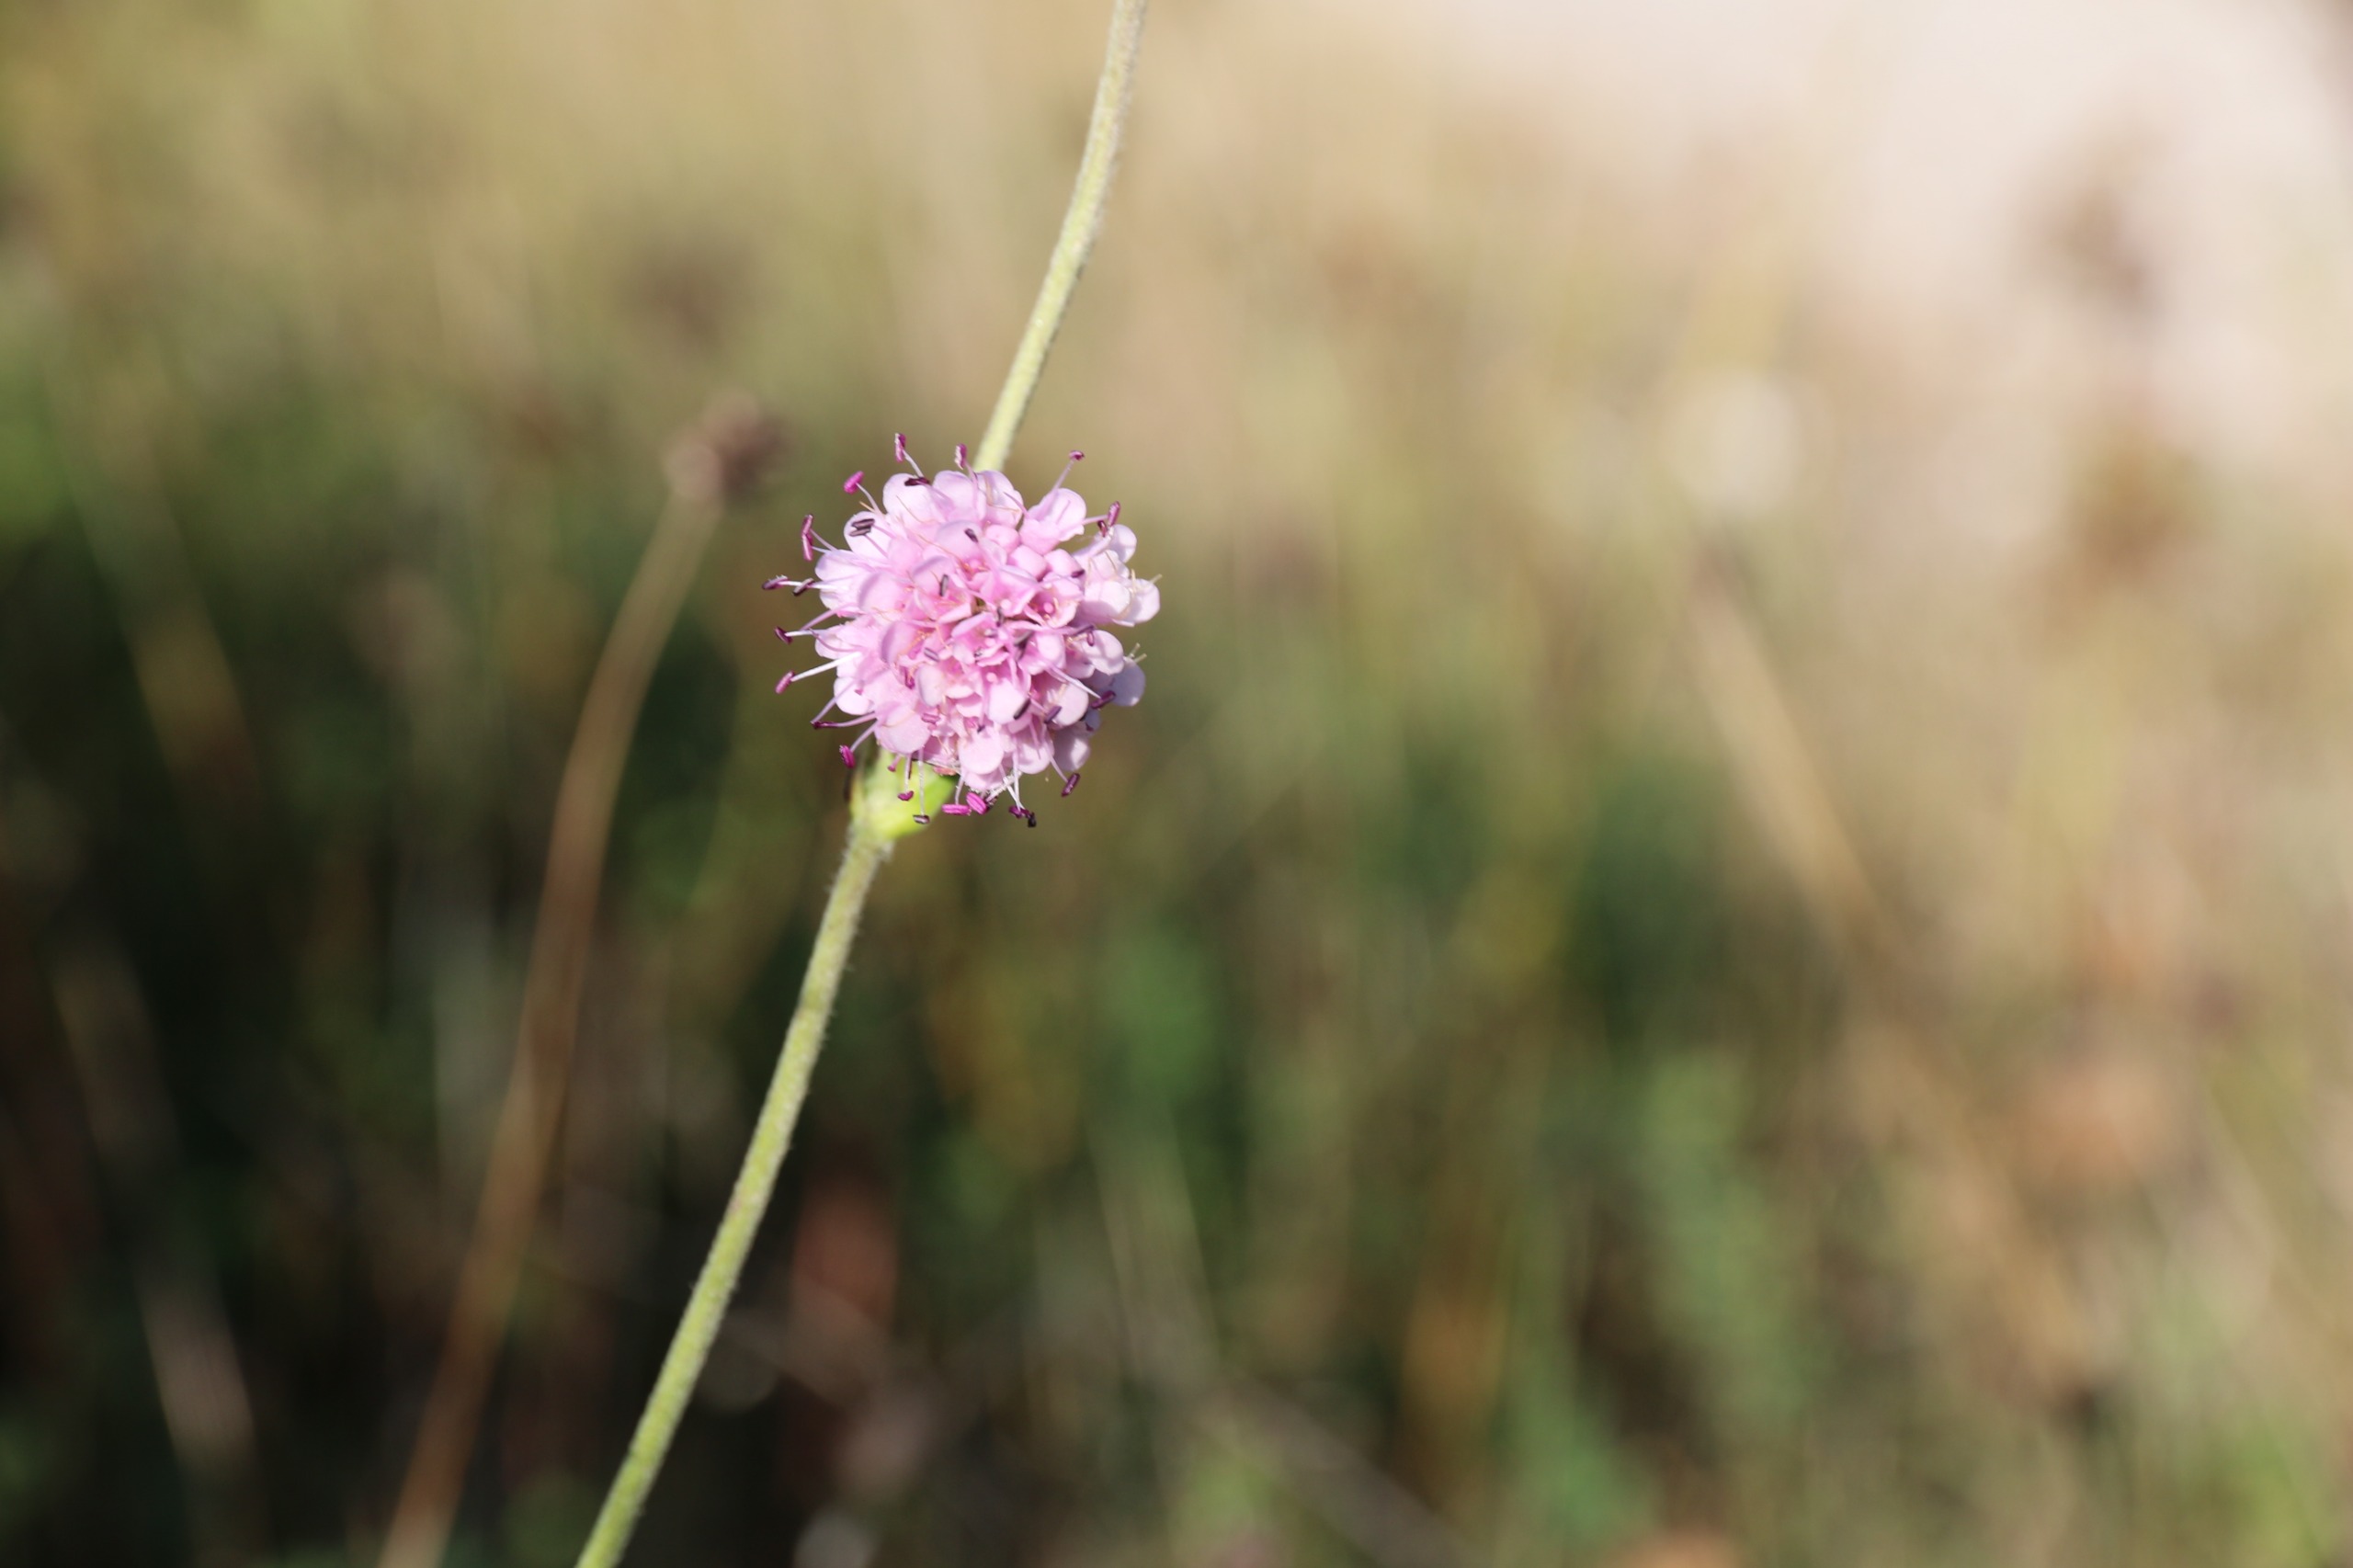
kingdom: Plantae
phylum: Tracheophyta
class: Magnoliopsida
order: Dipsacales
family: Caprifoliaceae
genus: Succisa
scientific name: Succisa pratensis
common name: Djævelsbid
